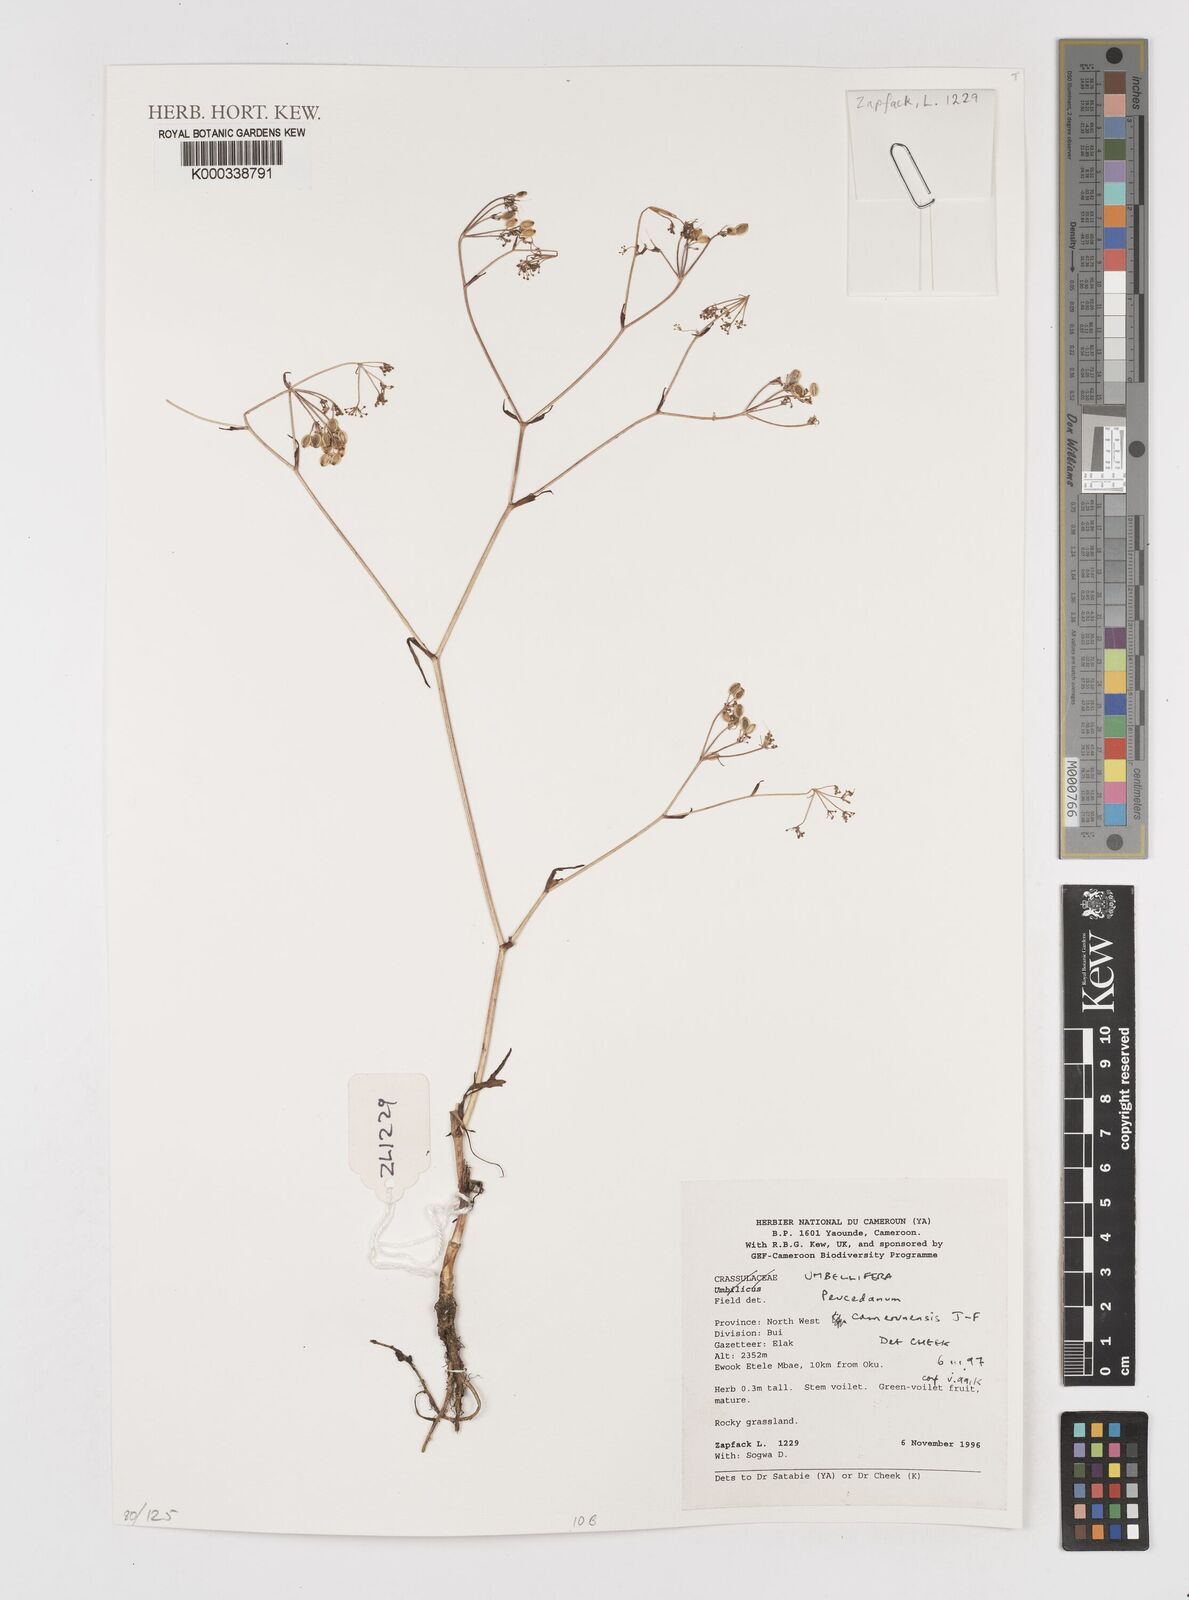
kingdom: Plantae
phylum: Tracheophyta
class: Magnoliopsida
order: Apiales
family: Apiaceae
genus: Lefebvrea
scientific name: Lefebvrea
